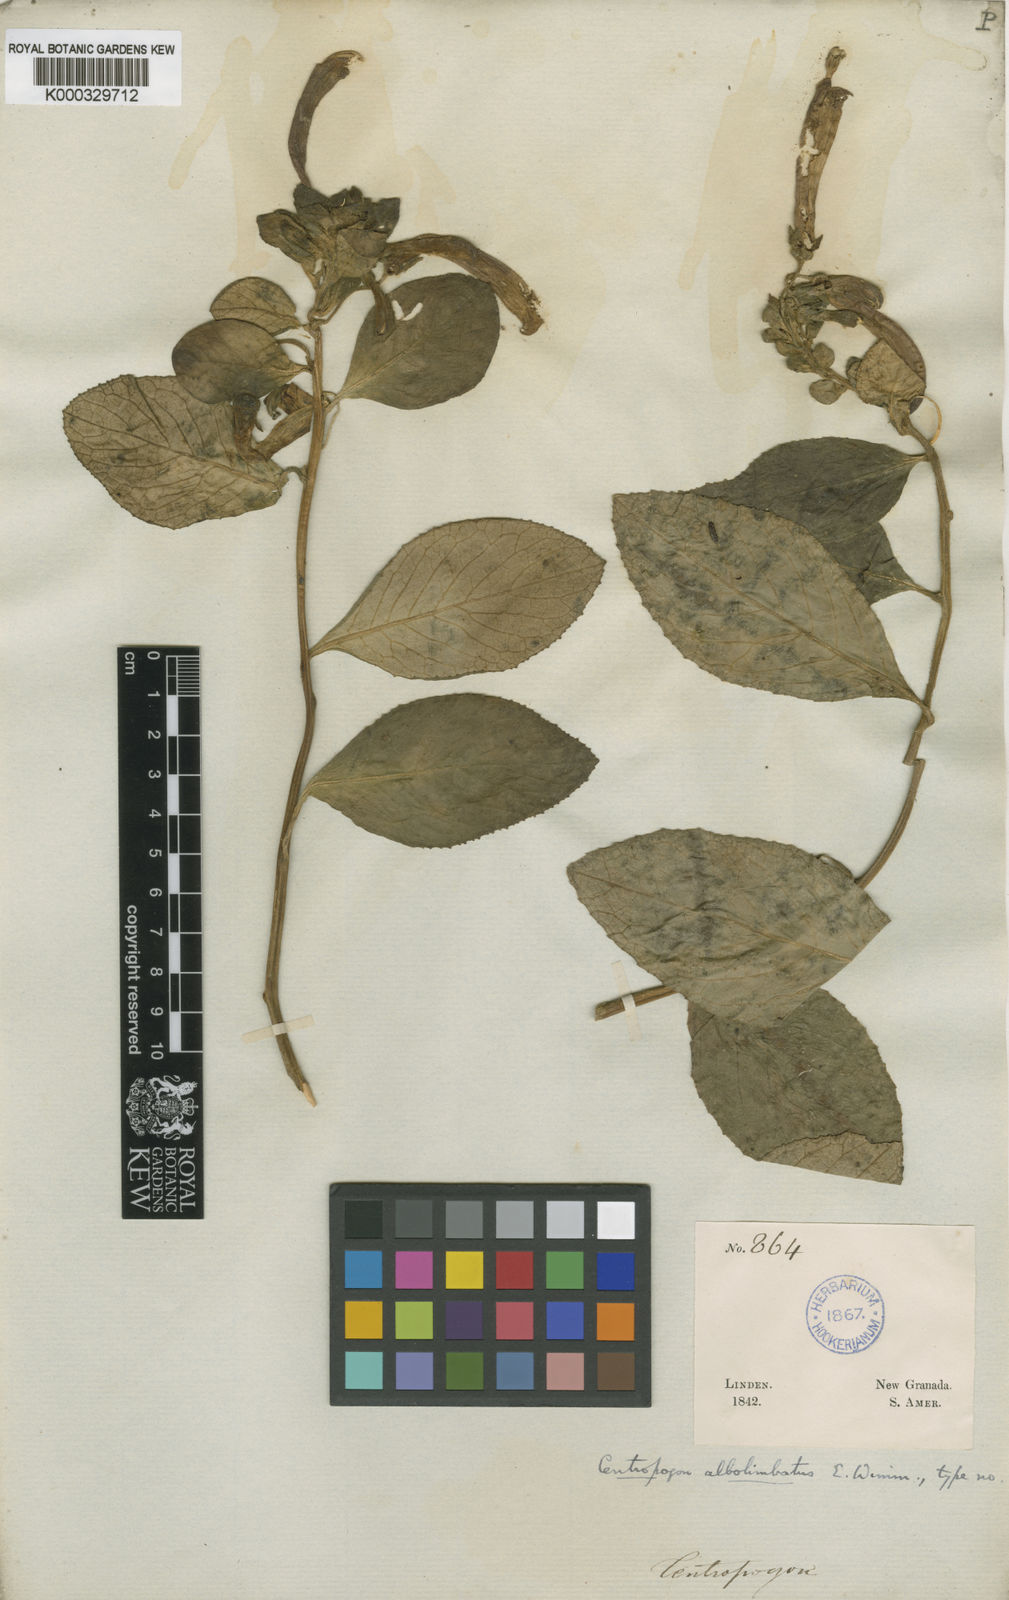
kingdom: Plantae
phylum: Tracheophyta
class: Magnoliopsida
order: Asterales
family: Campanulaceae
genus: Centropogon
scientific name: Centropogon albolimbatus
